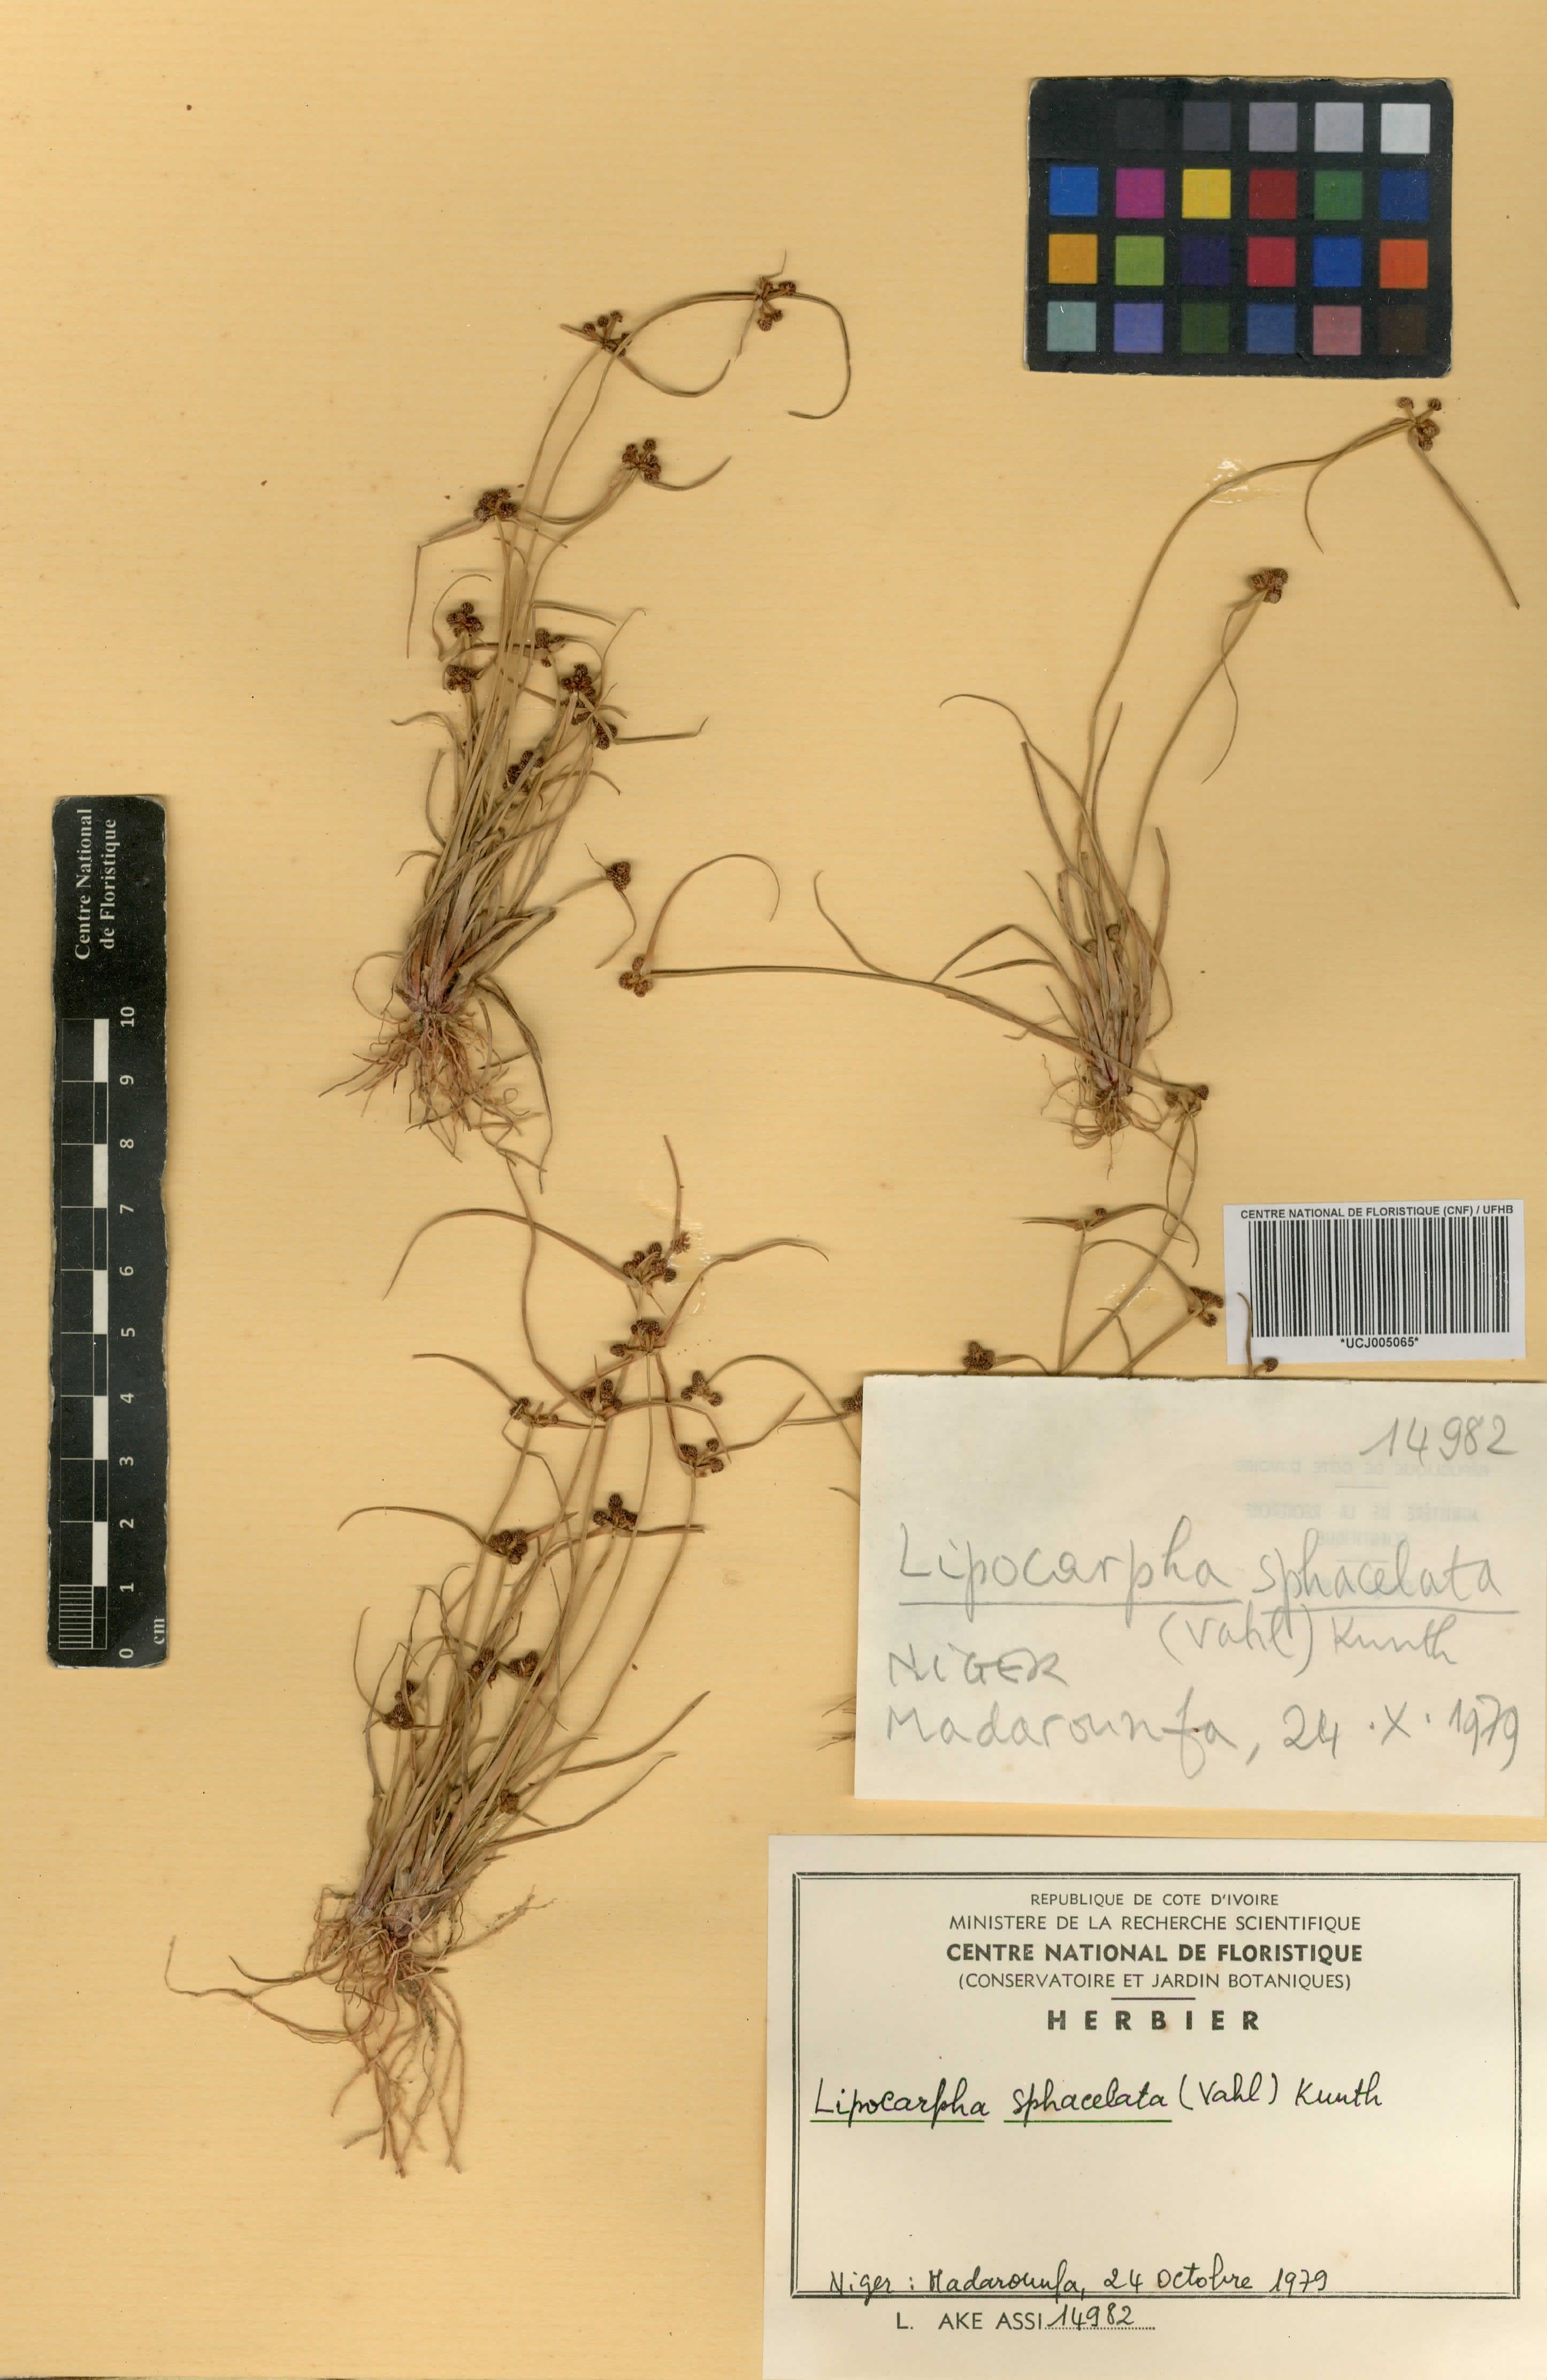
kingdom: Plantae
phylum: Tracheophyta
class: Liliopsida
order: Poales
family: Cyperaceae
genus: Cyperus
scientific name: Cyperus ceylanicus
